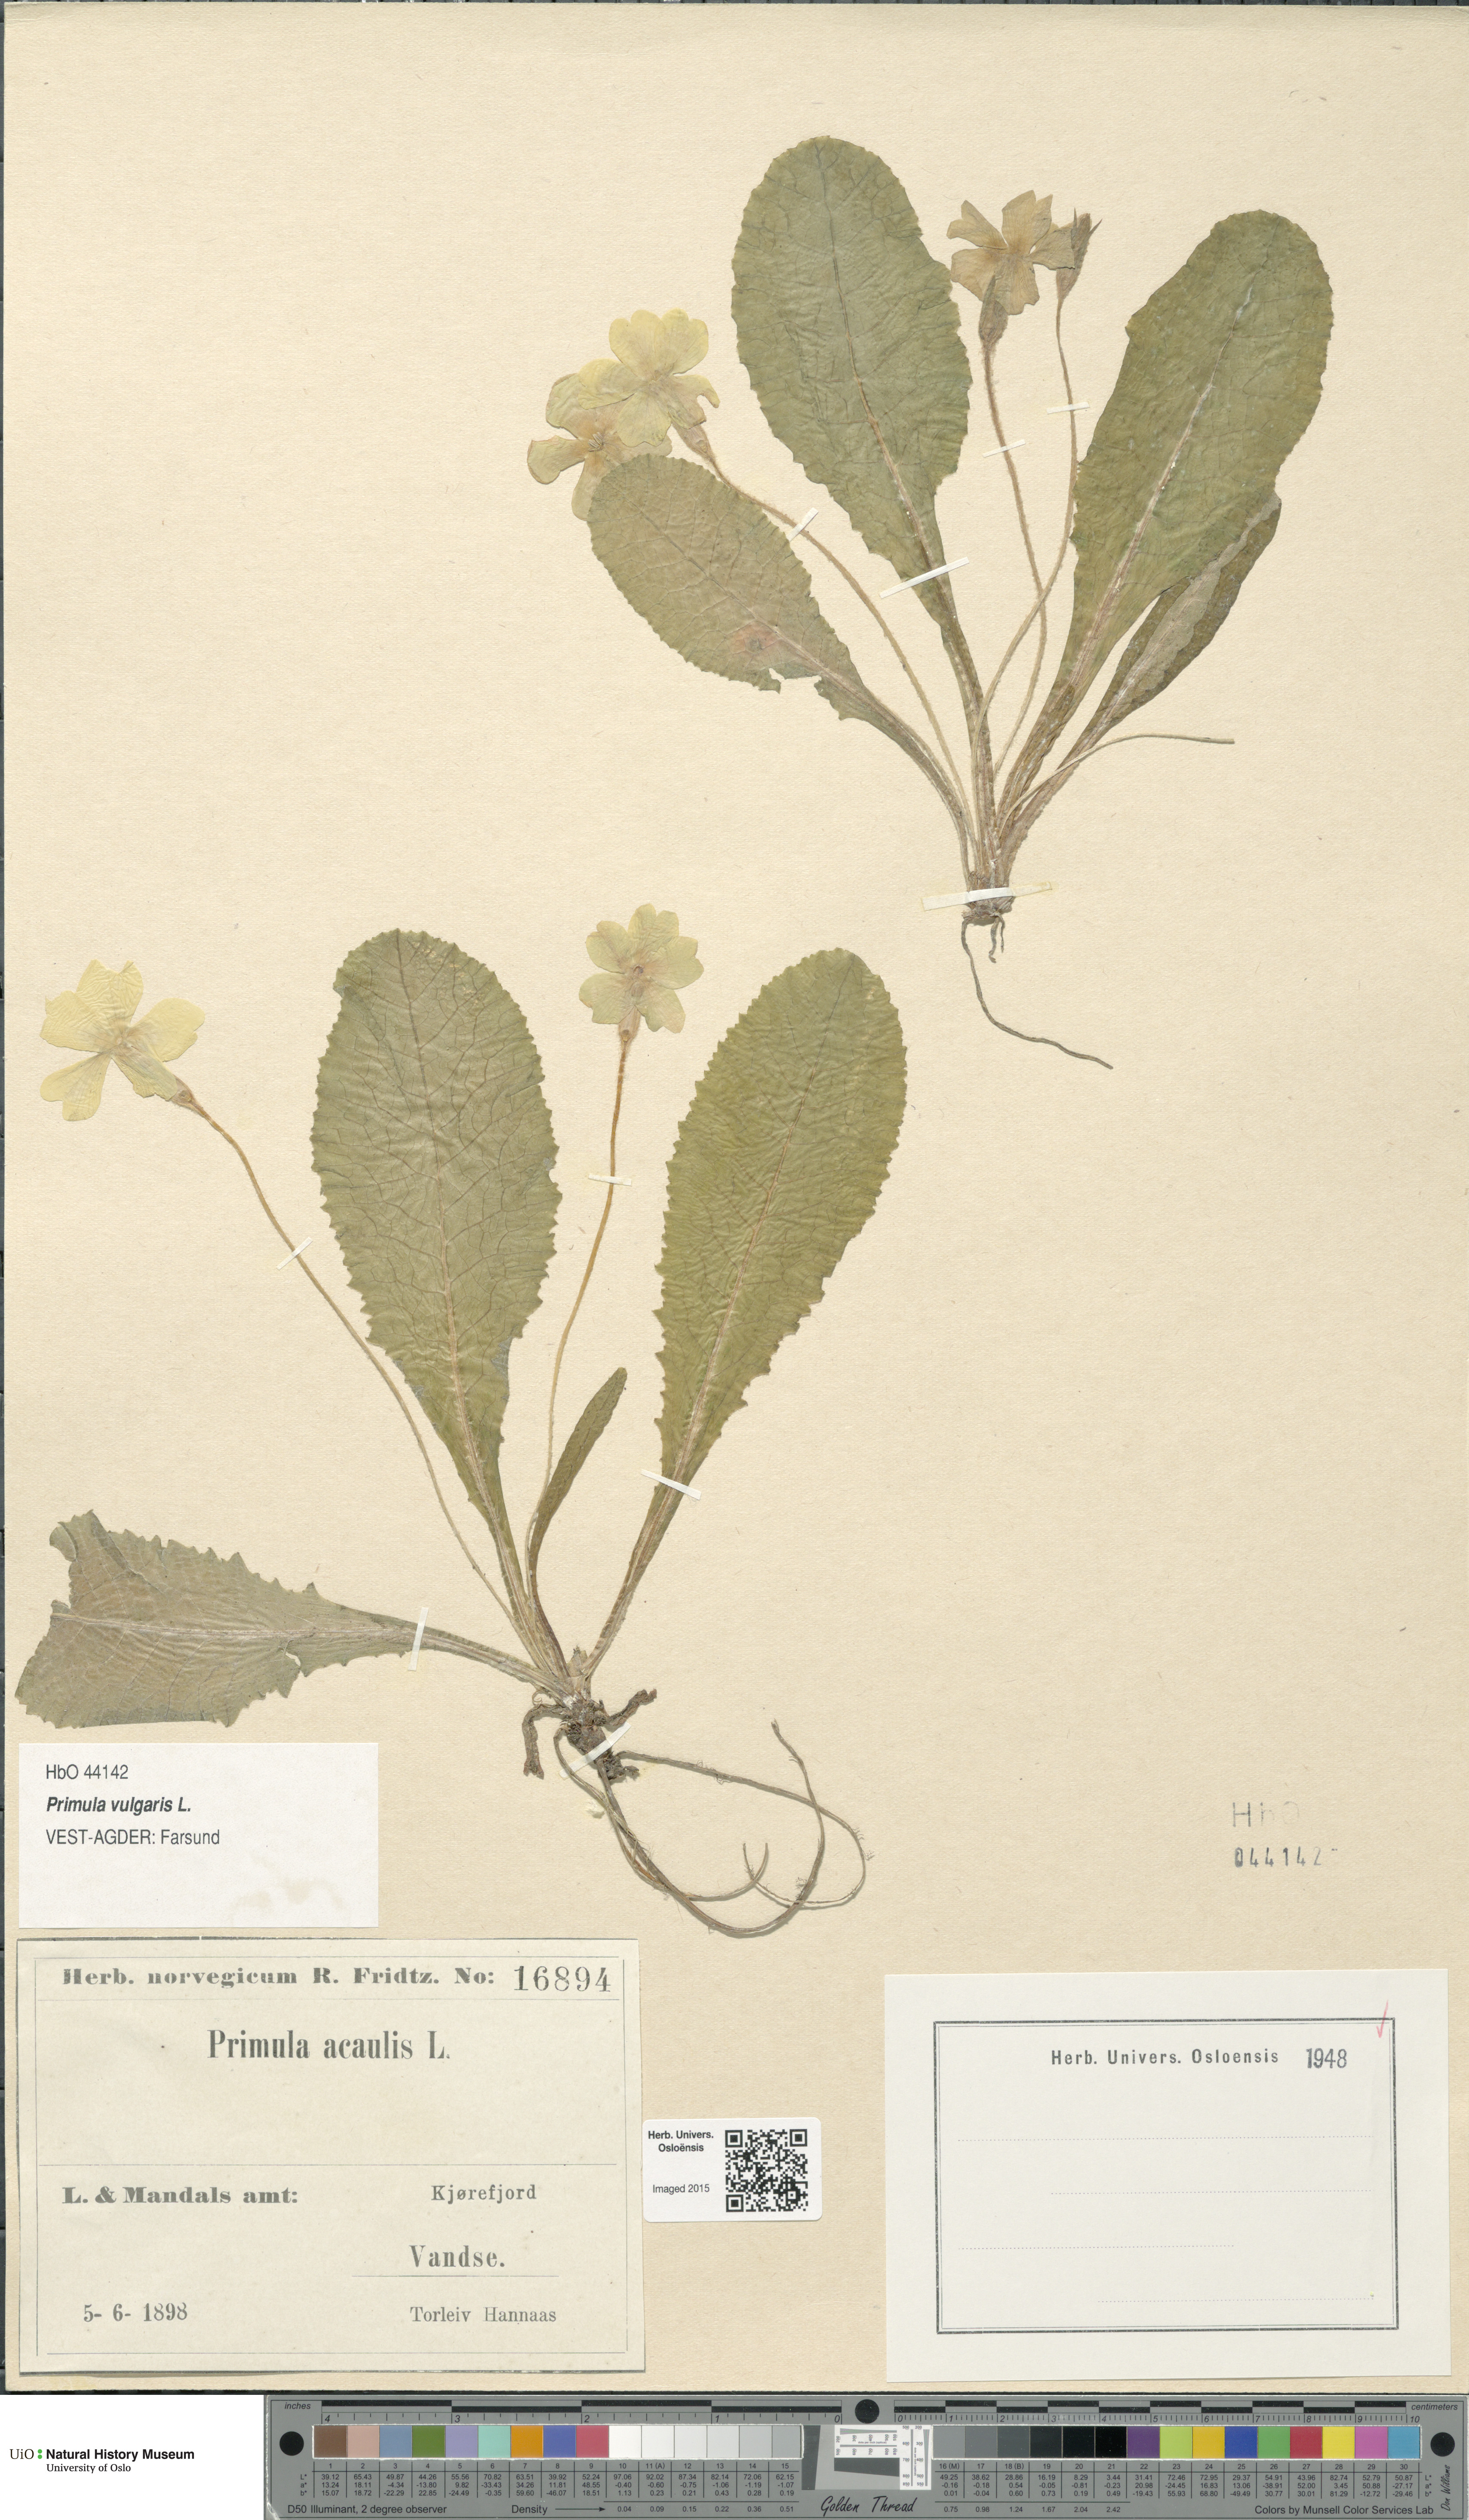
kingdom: Plantae
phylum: Tracheophyta
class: Magnoliopsida
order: Ericales
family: Primulaceae
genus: Primula
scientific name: Primula vulgaris
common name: Primrose
